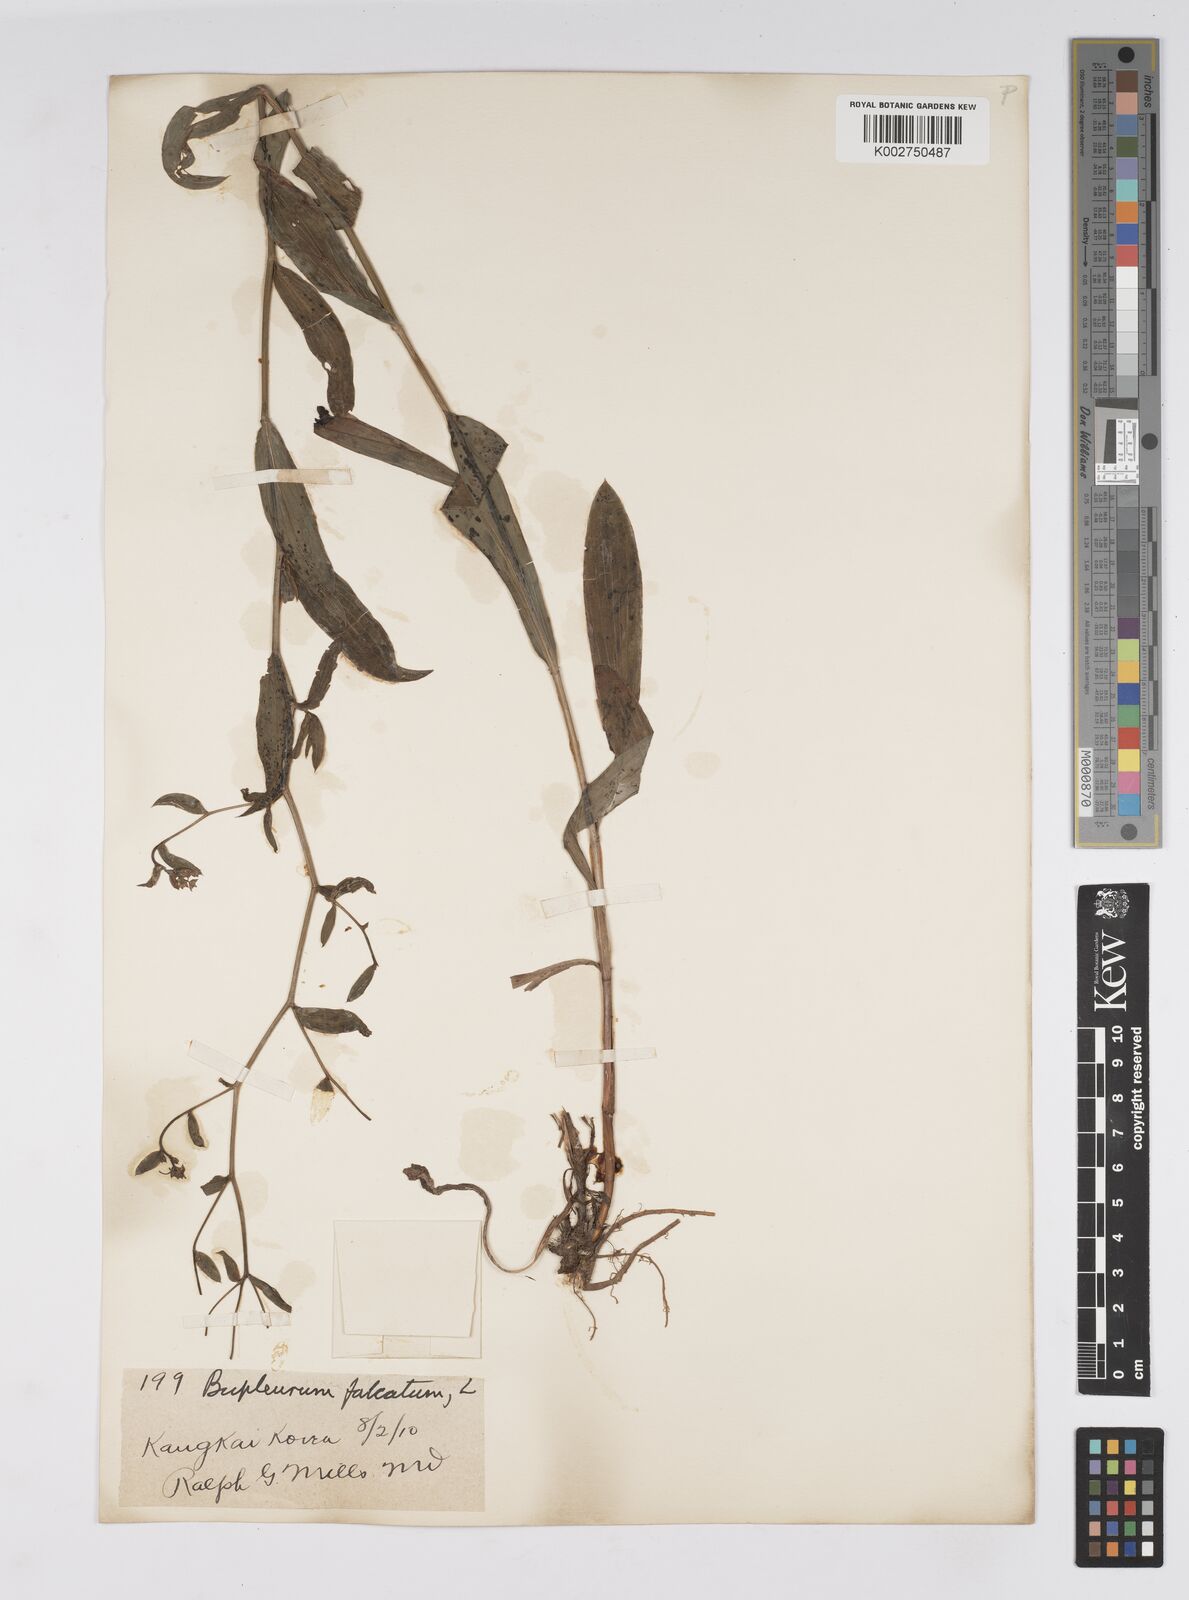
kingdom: Plantae
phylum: Tracheophyta
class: Magnoliopsida
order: Apiales
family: Apiaceae
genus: Bupleurum
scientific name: Bupleurum krylovianum
